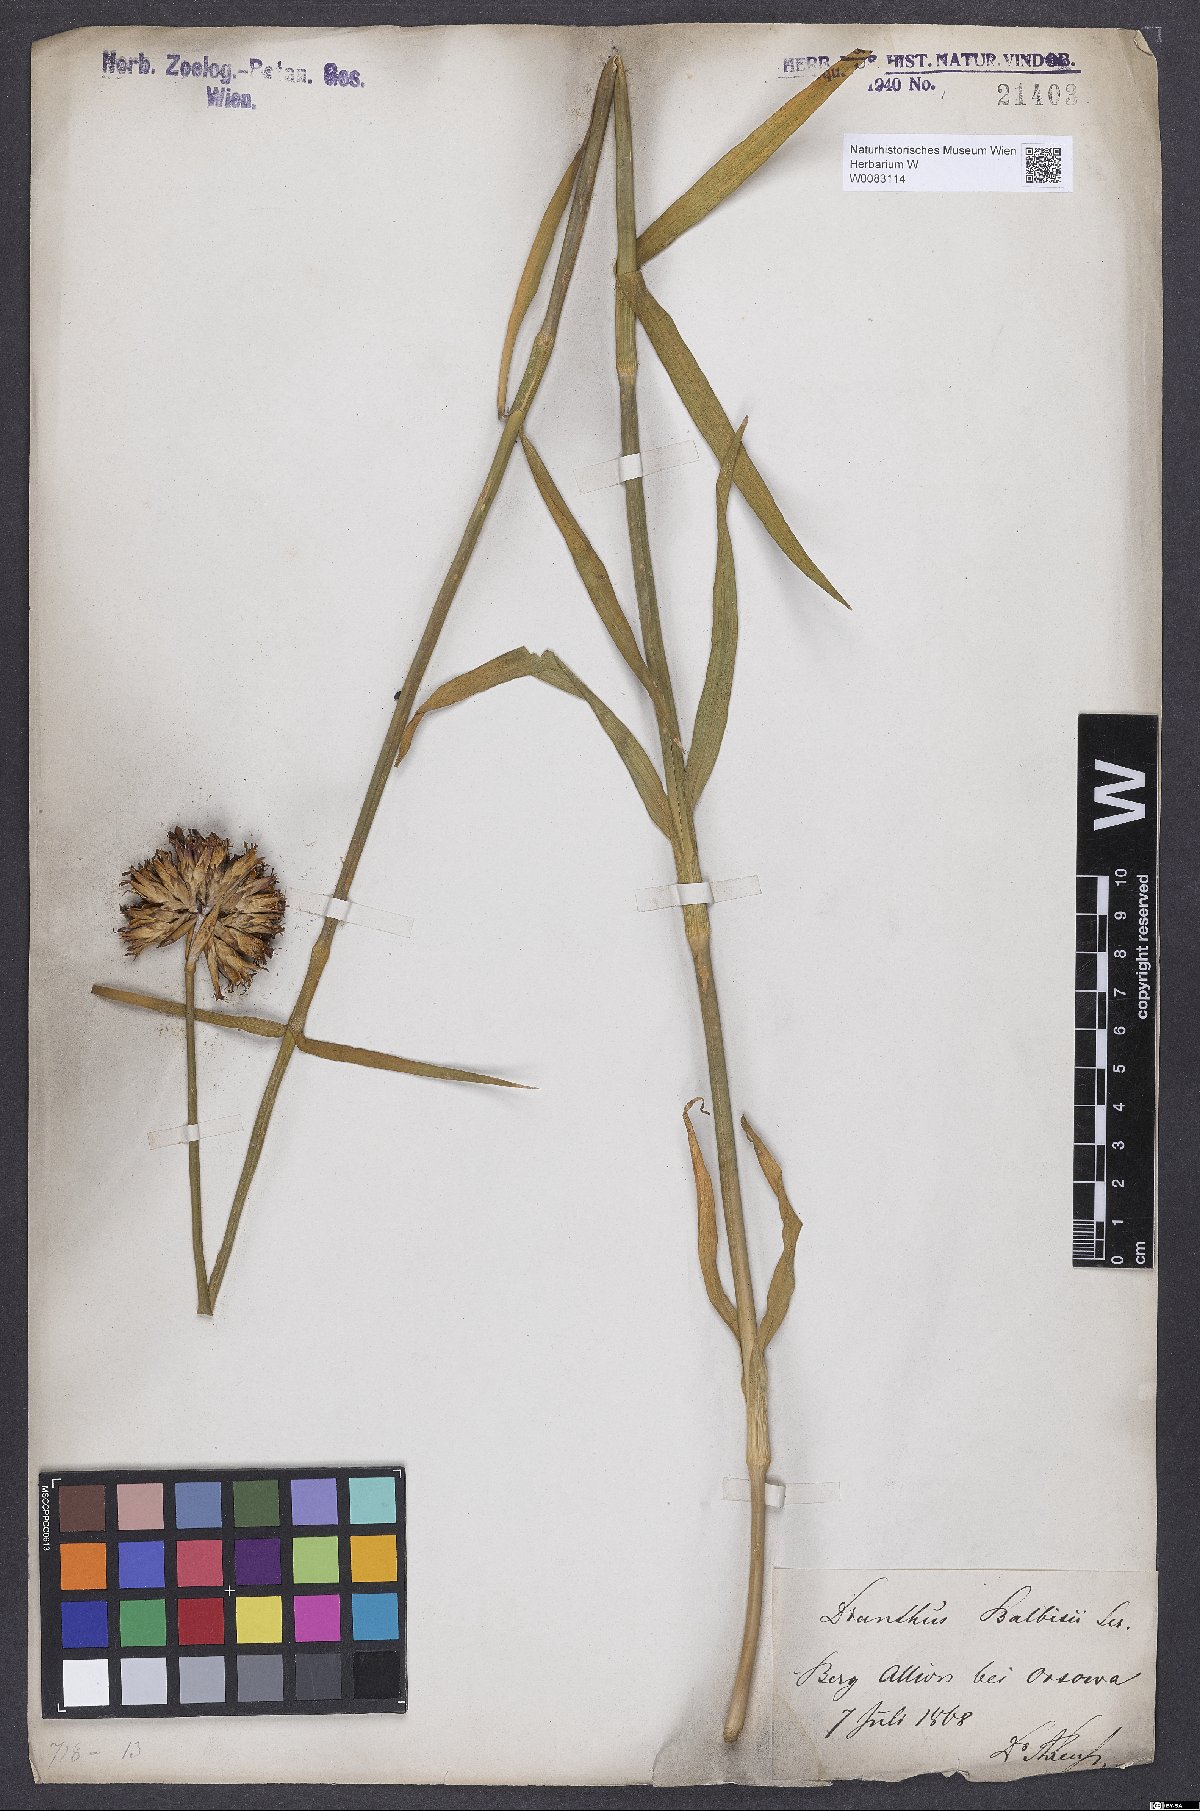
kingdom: Plantae
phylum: Tracheophyta
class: Magnoliopsida
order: Caryophyllales
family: Caryophyllaceae
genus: Dianthus
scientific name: Dianthus crassipes
